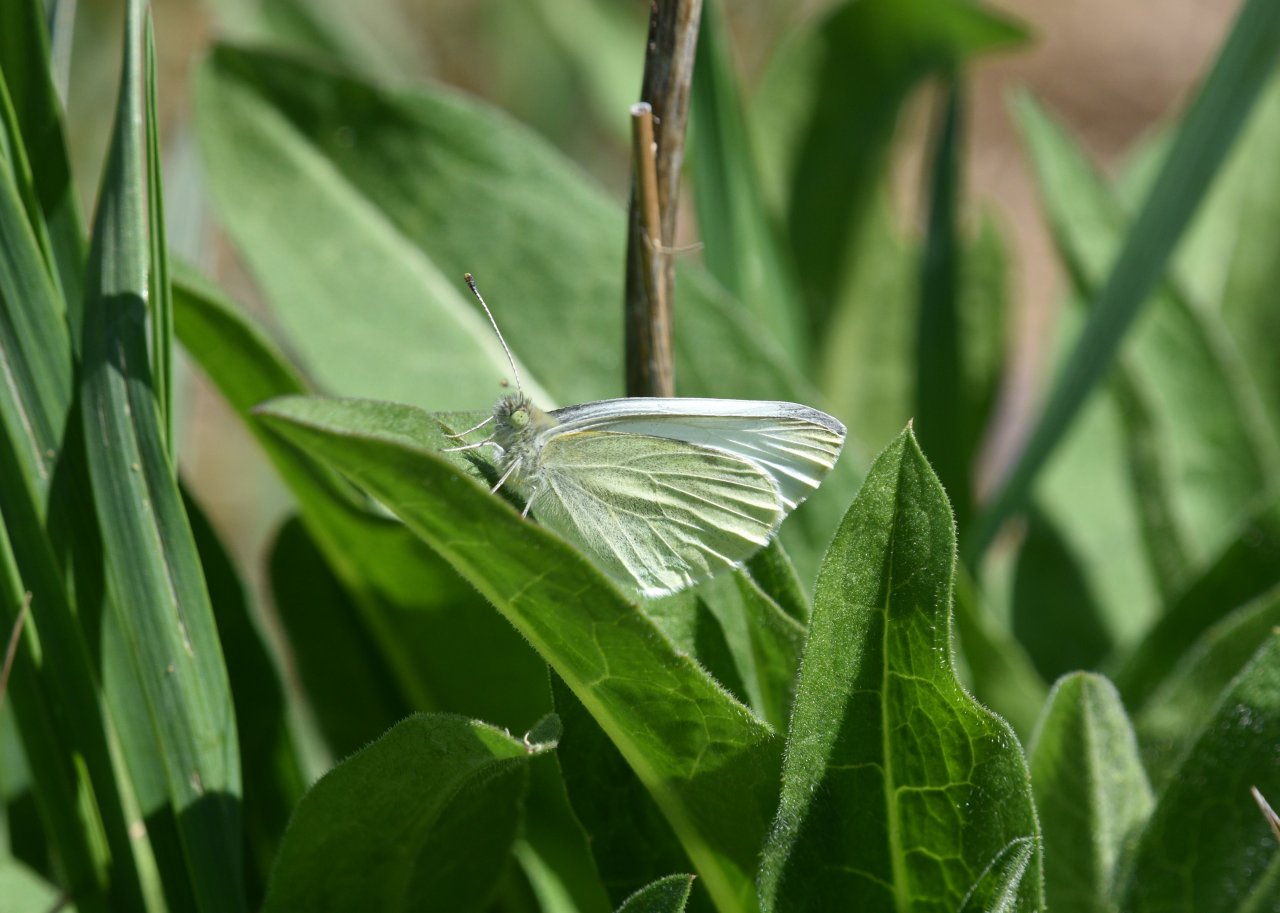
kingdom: Animalia
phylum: Arthropoda
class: Insecta
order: Lepidoptera
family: Pieridae
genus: Pieris
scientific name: Pieris rapae
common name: Cabbage White
